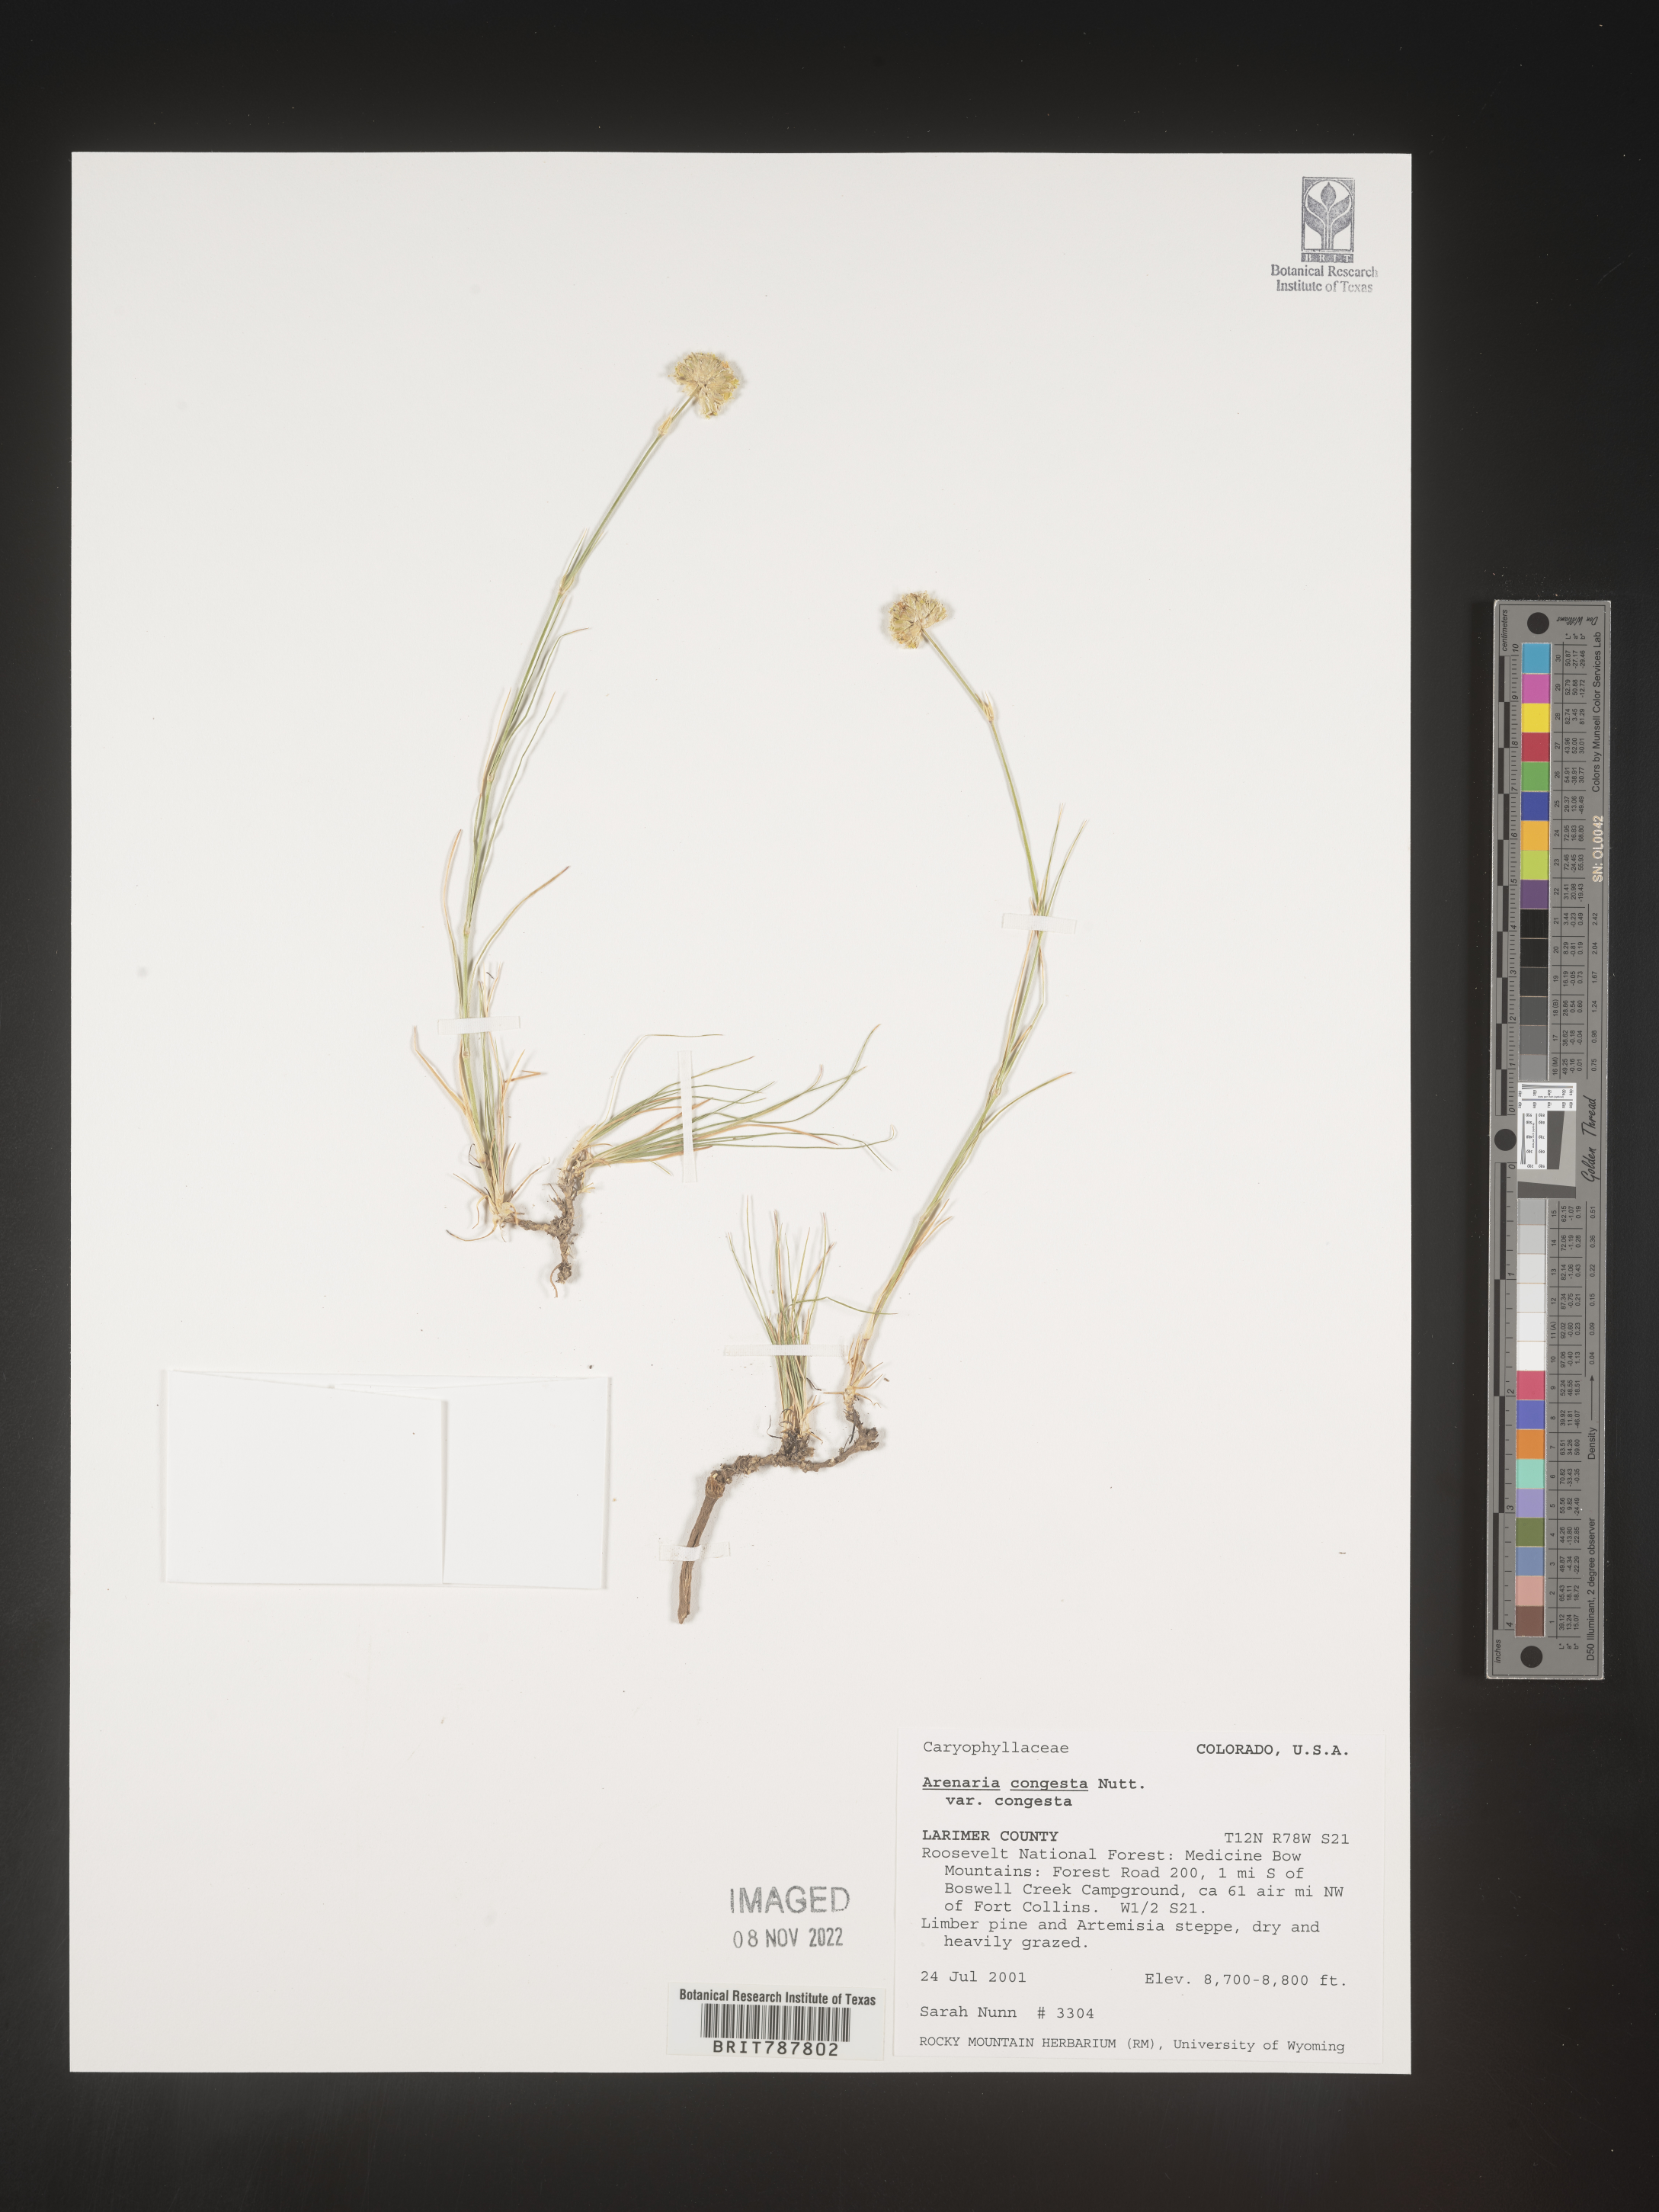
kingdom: Plantae
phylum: Tracheophyta
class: Magnoliopsida
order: Caryophyllales
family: Caryophyllaceae
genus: Eremogone
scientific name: Eremogone congesta
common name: Ballhead sandwort
